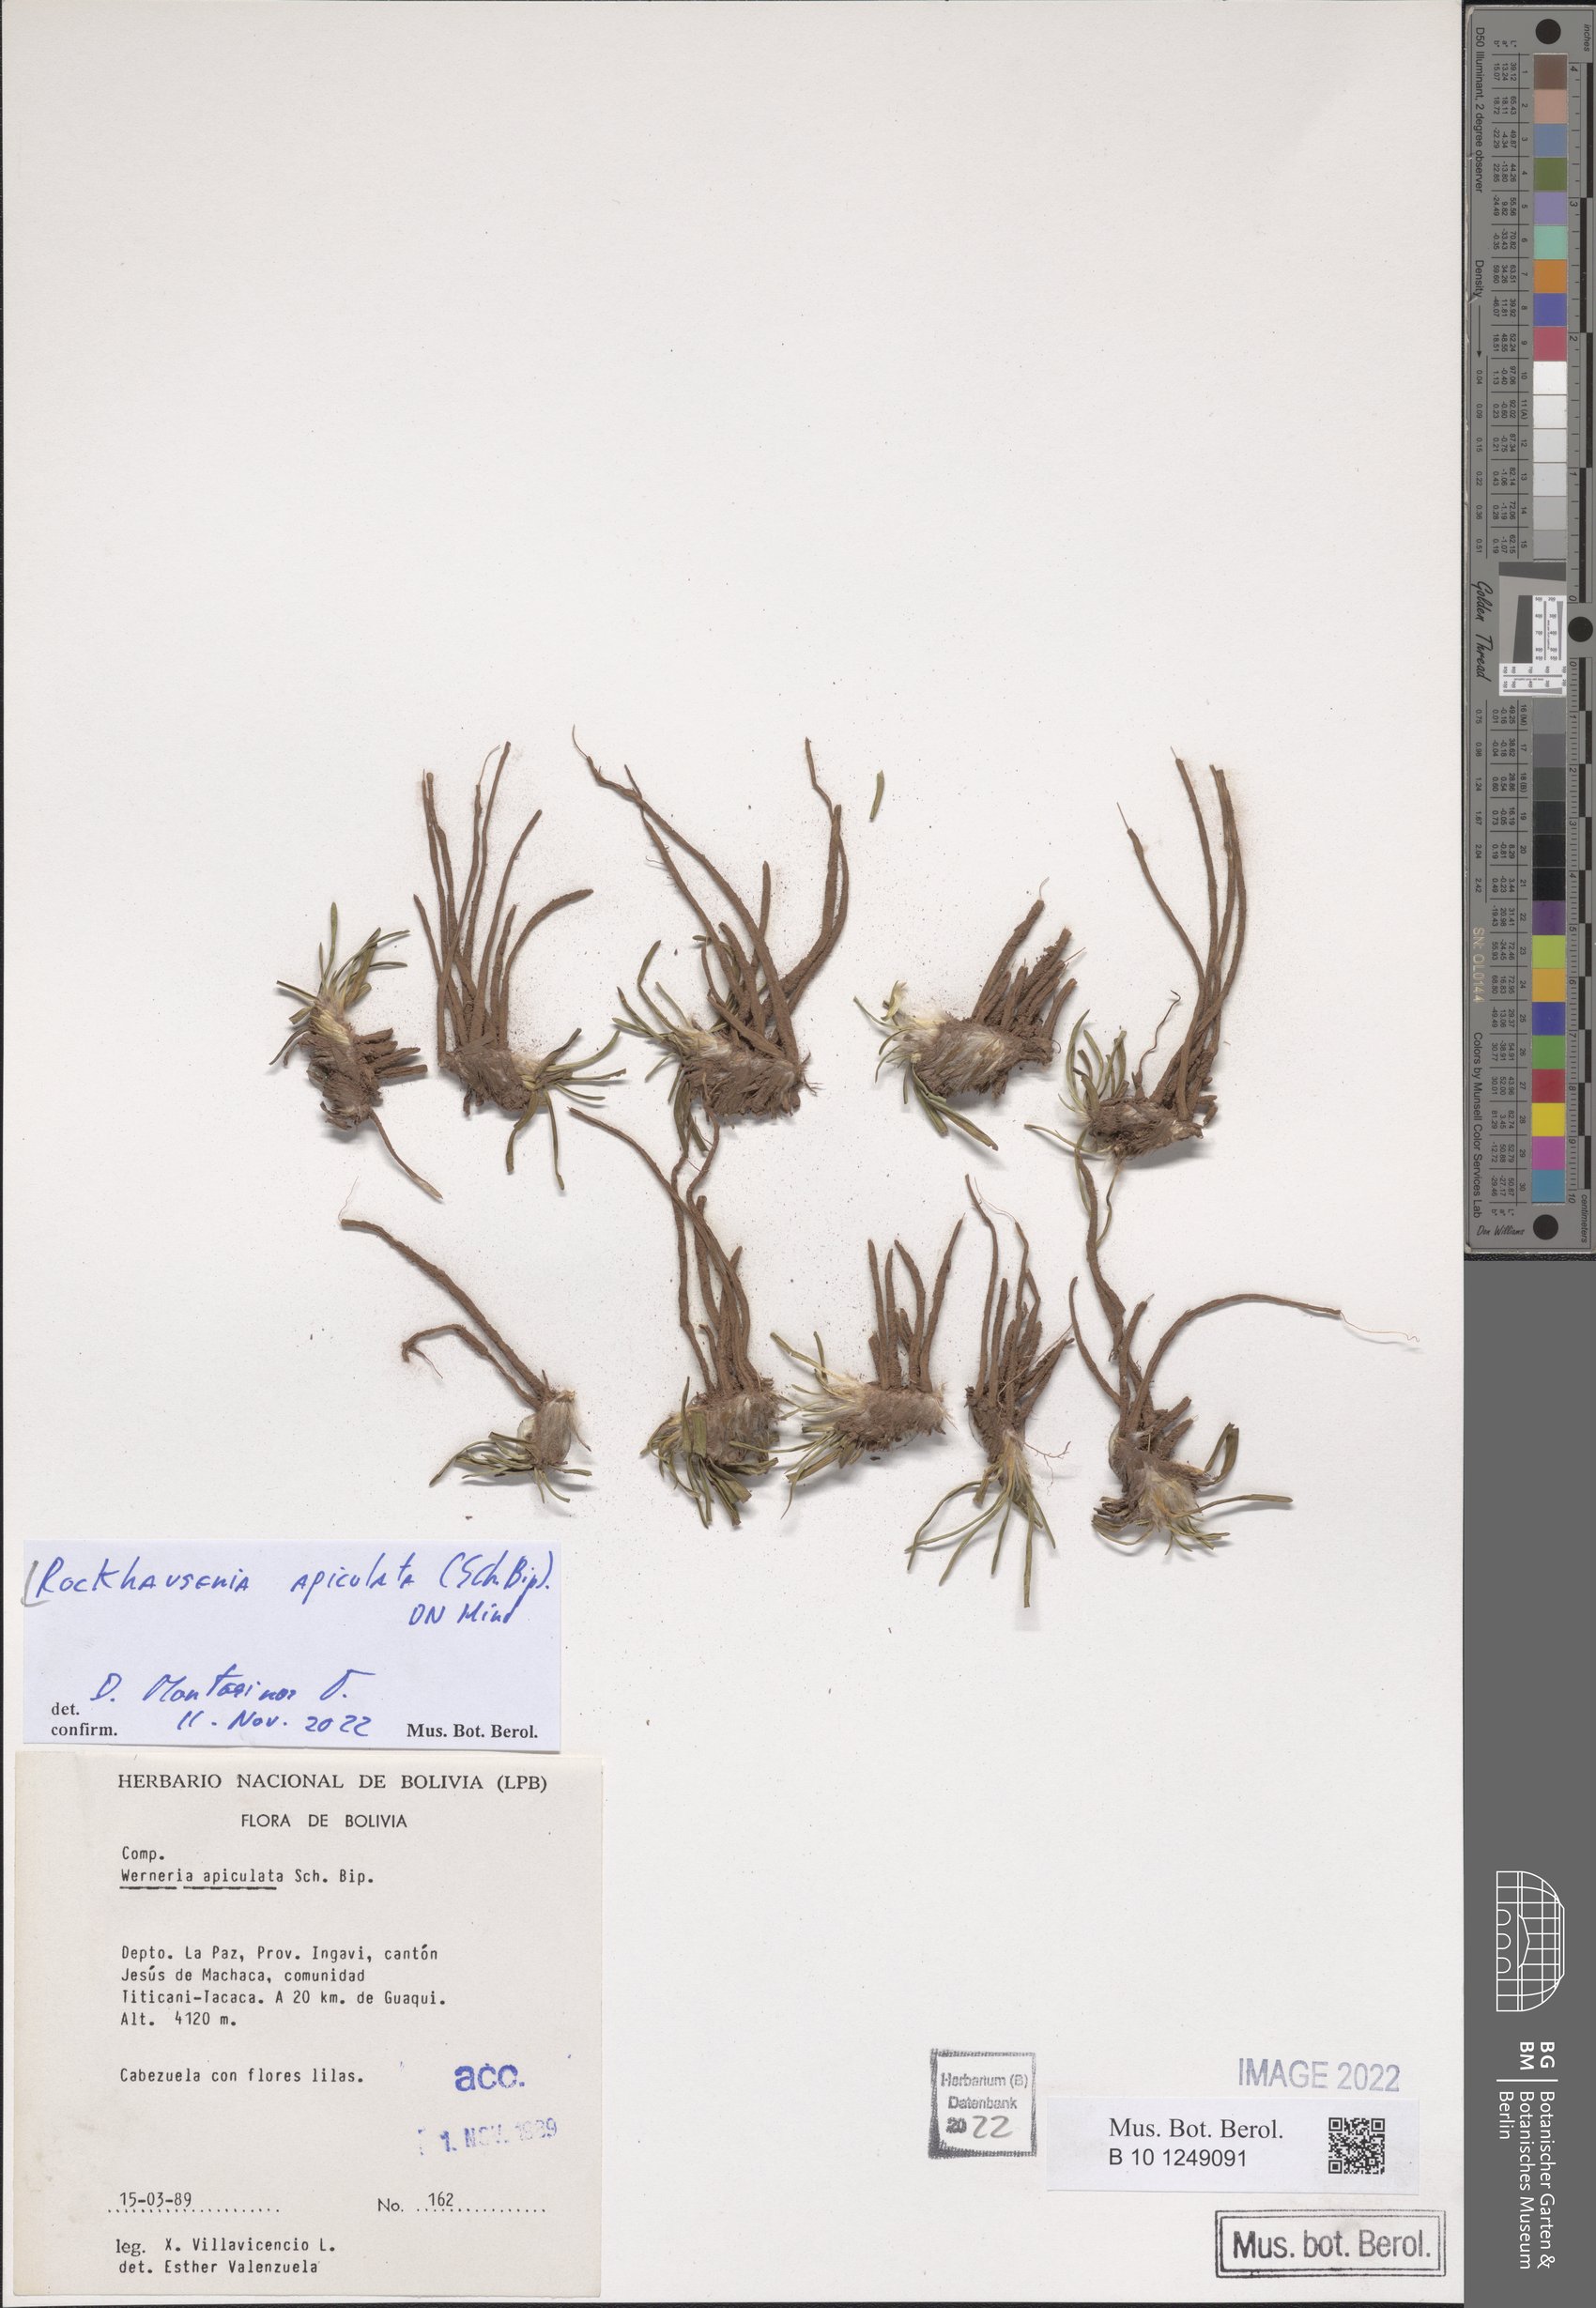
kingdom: Plantae
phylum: Tracheophyta
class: Magnoliopsida
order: Asterales
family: Asteraceae
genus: Rockhausenia
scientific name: Rockhausenia apiculata
